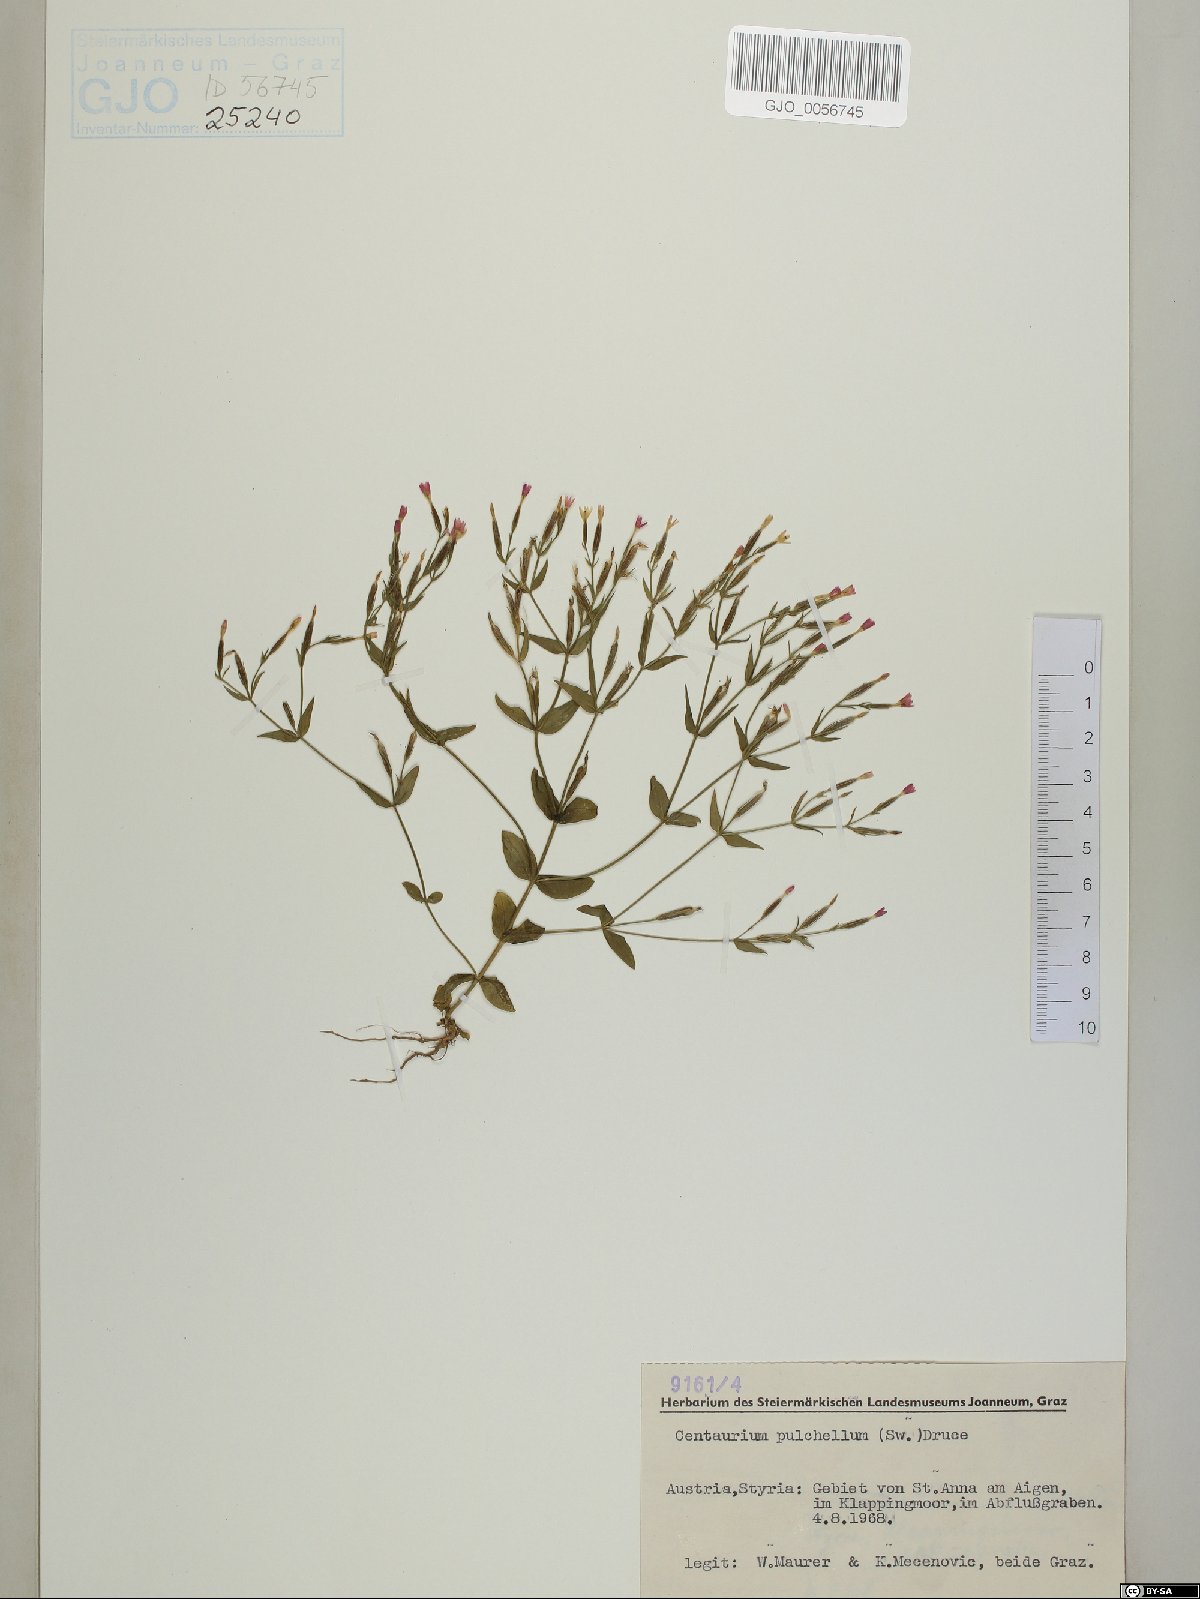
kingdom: Plantae
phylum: Tracheophyta
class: Magnoliopsida
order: Gentianales
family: Gentianaceae
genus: Centaurium
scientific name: Centaurium pulchellum
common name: Lesser centaury
